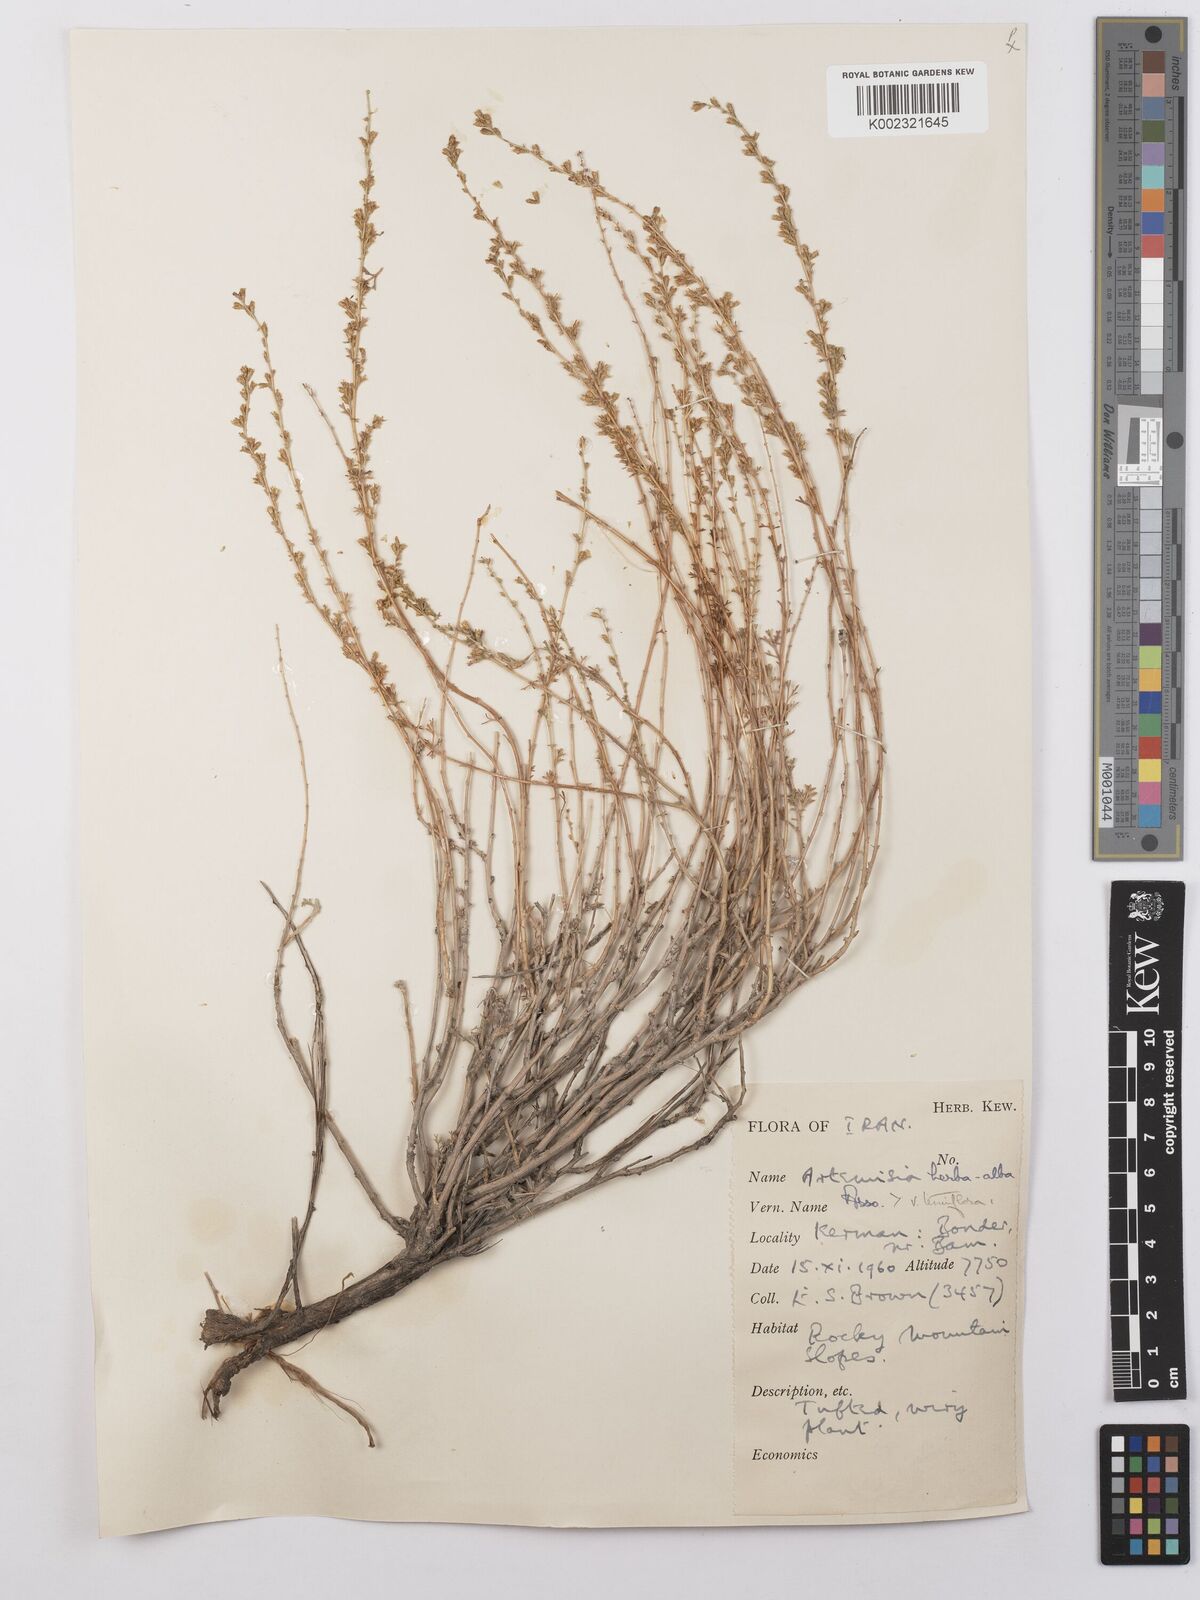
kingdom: Plantae
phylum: Tracheophyta
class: Magnoliopsida
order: Asterales
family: Asteraceae
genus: Artemisia
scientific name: Artemisia herba-alba
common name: White wormwood
